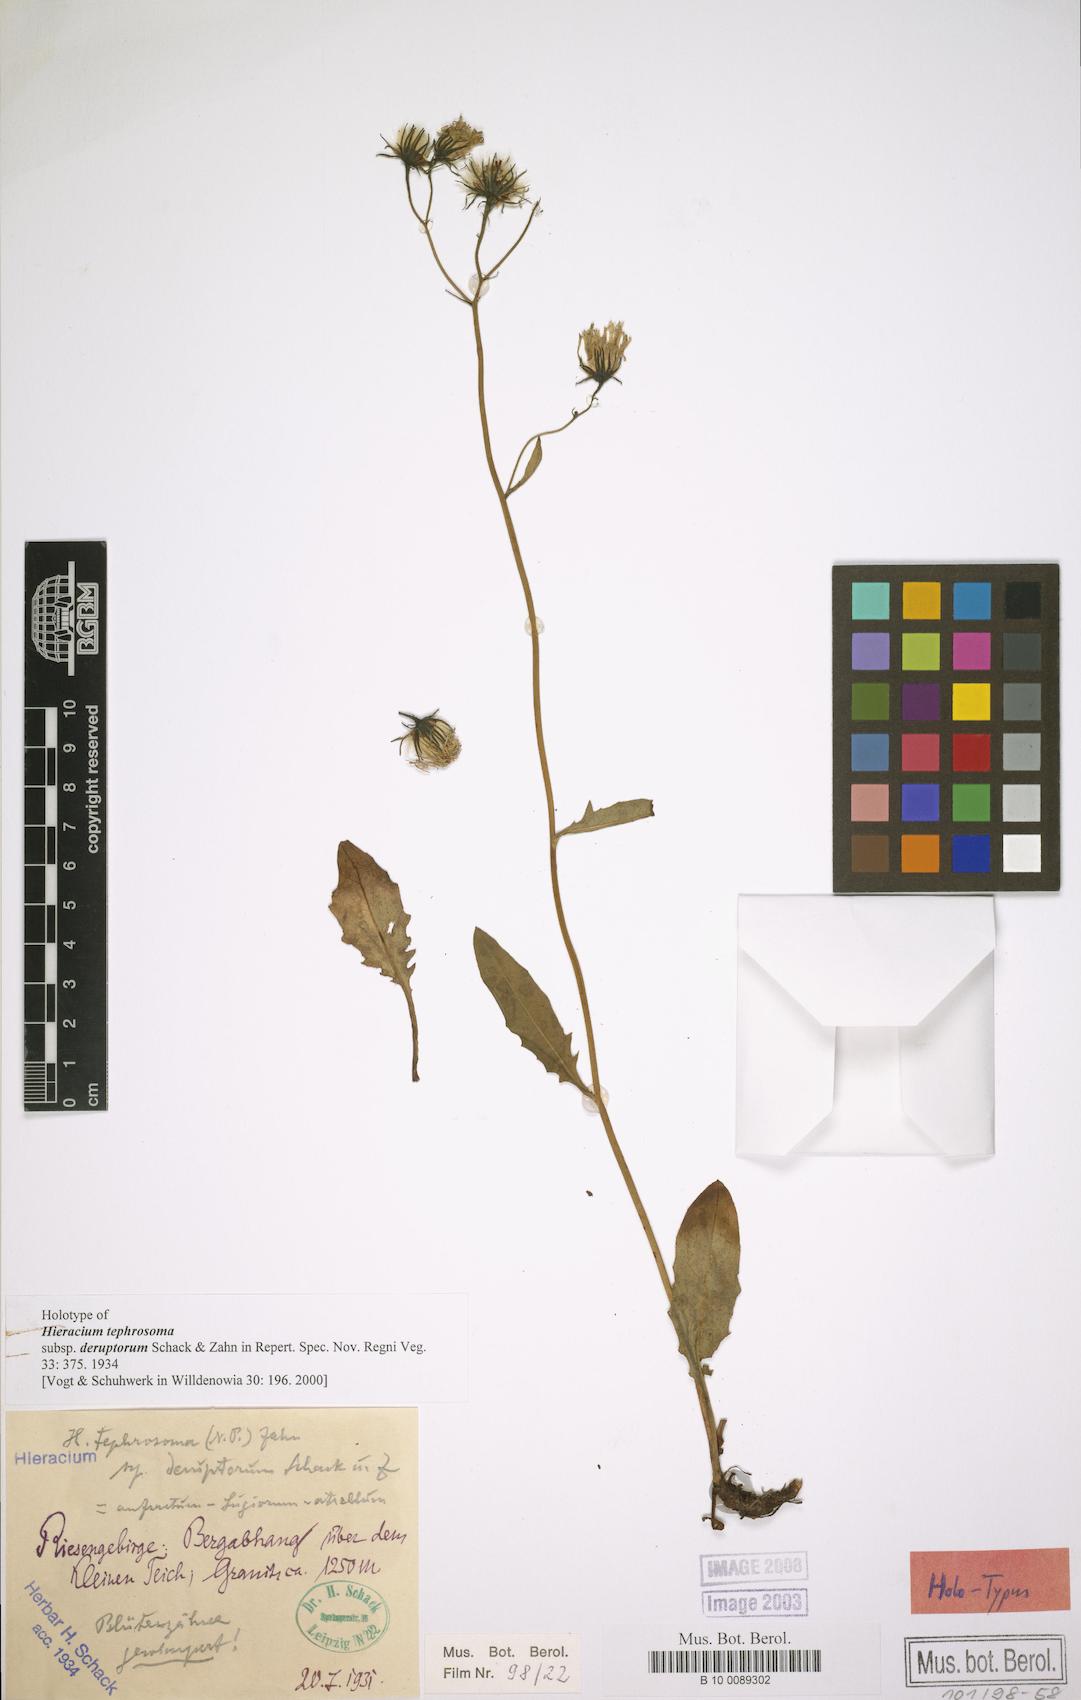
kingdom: Plantae
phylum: Tracheophyta
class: Magnoliopsida
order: Asterales
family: Asteraceae
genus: Hieracium
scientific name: Hieracium tephrosoma
